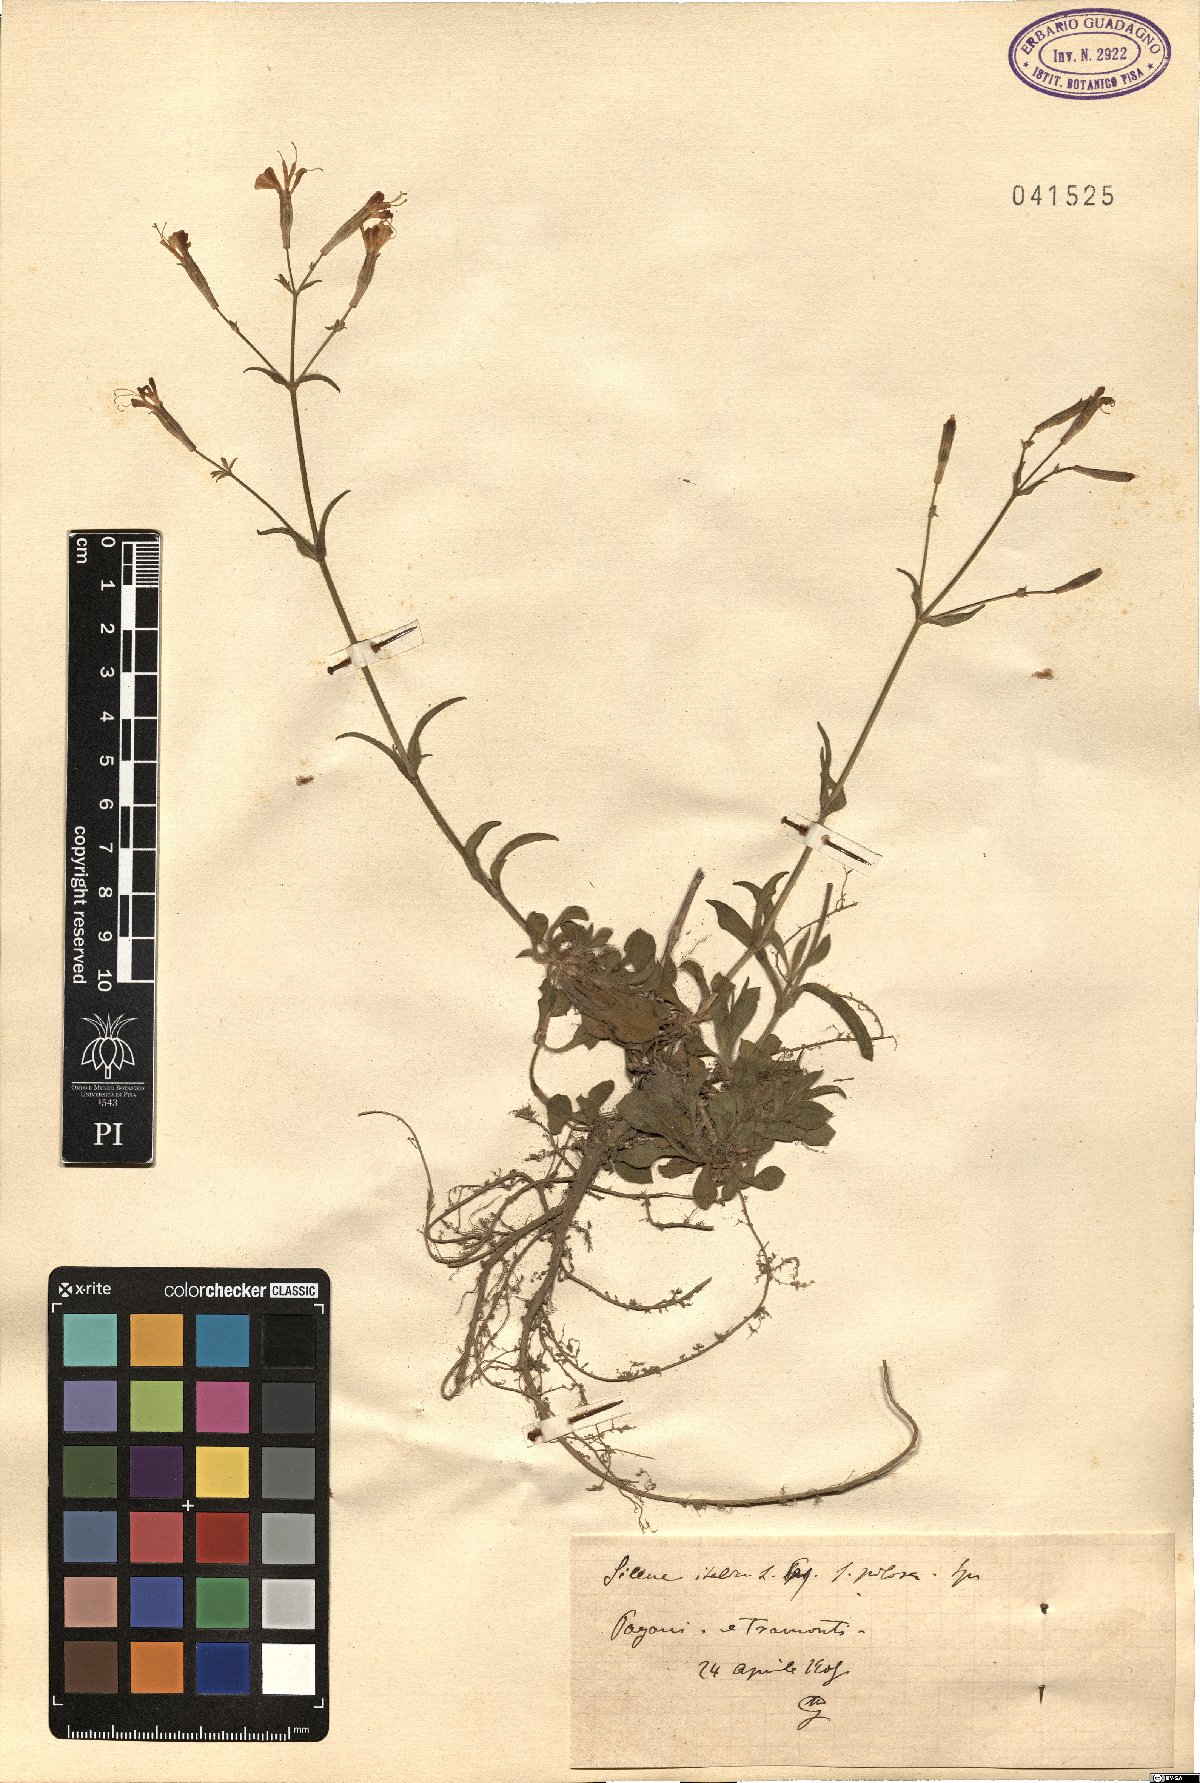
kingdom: Plantae
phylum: Tracheophyta
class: Magnoliopsida
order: Caryophyllales
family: Caryophyllaceae
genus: Silene
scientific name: Silene italica
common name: Italian catchfly
